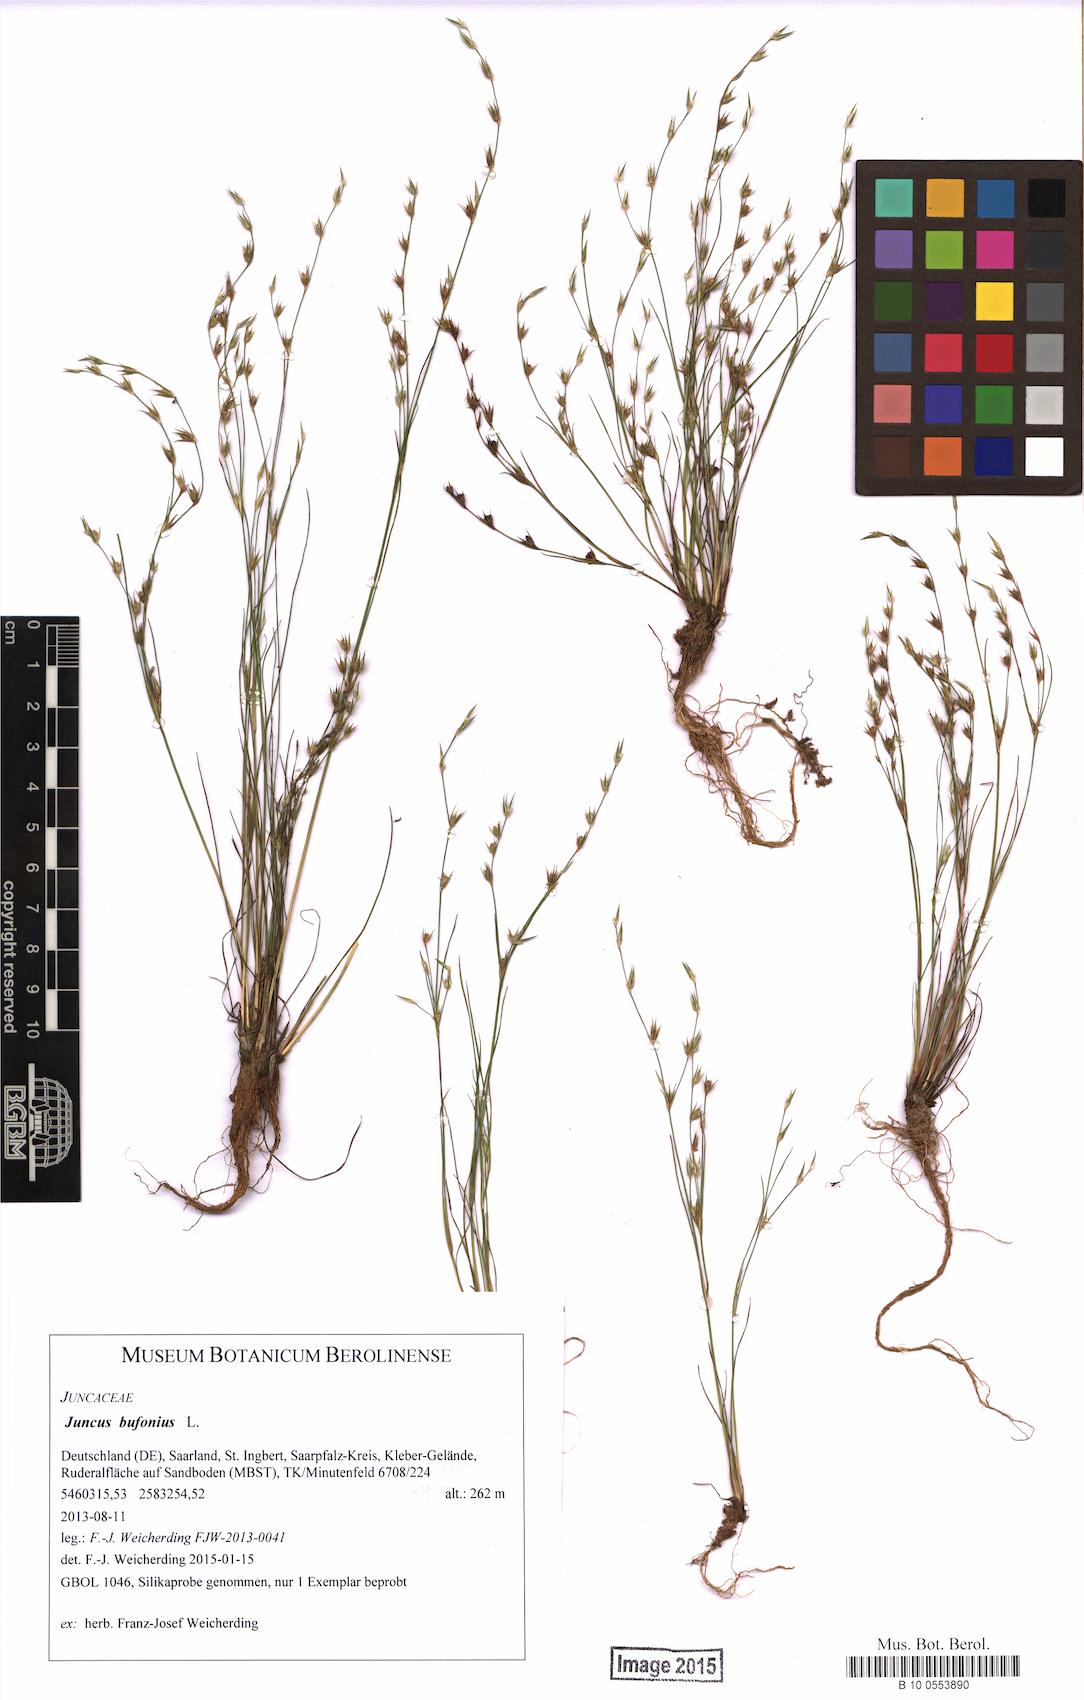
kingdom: Plantae
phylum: Tracheophyta
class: Liliopsida
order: Poales
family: Juncaceae
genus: Juncus
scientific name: Juncus bufonius
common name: Toad rush
